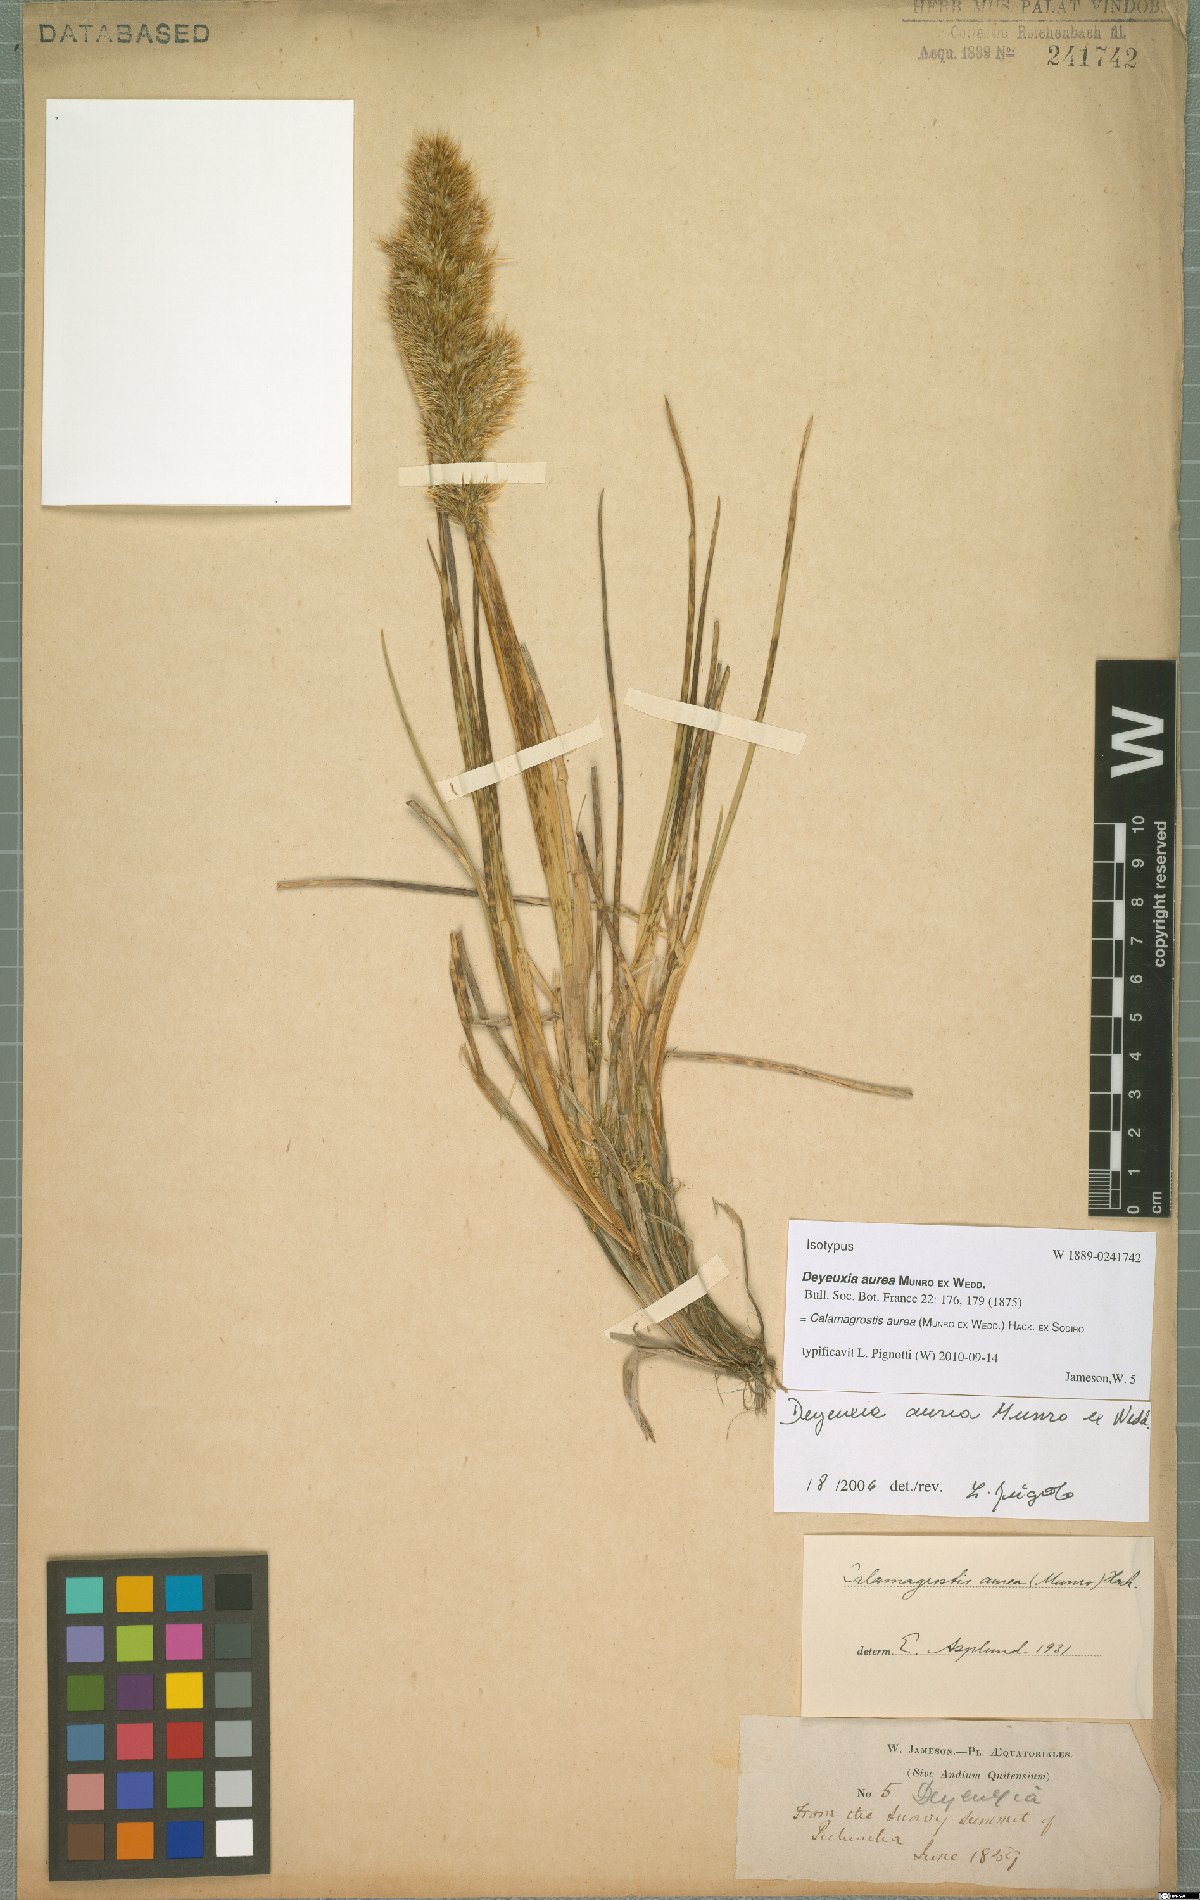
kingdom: Plantae
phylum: Tracheophyta
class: Liliopsida
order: Poales
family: Poaceae
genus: Deschampsia
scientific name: Deschampsia aurea
